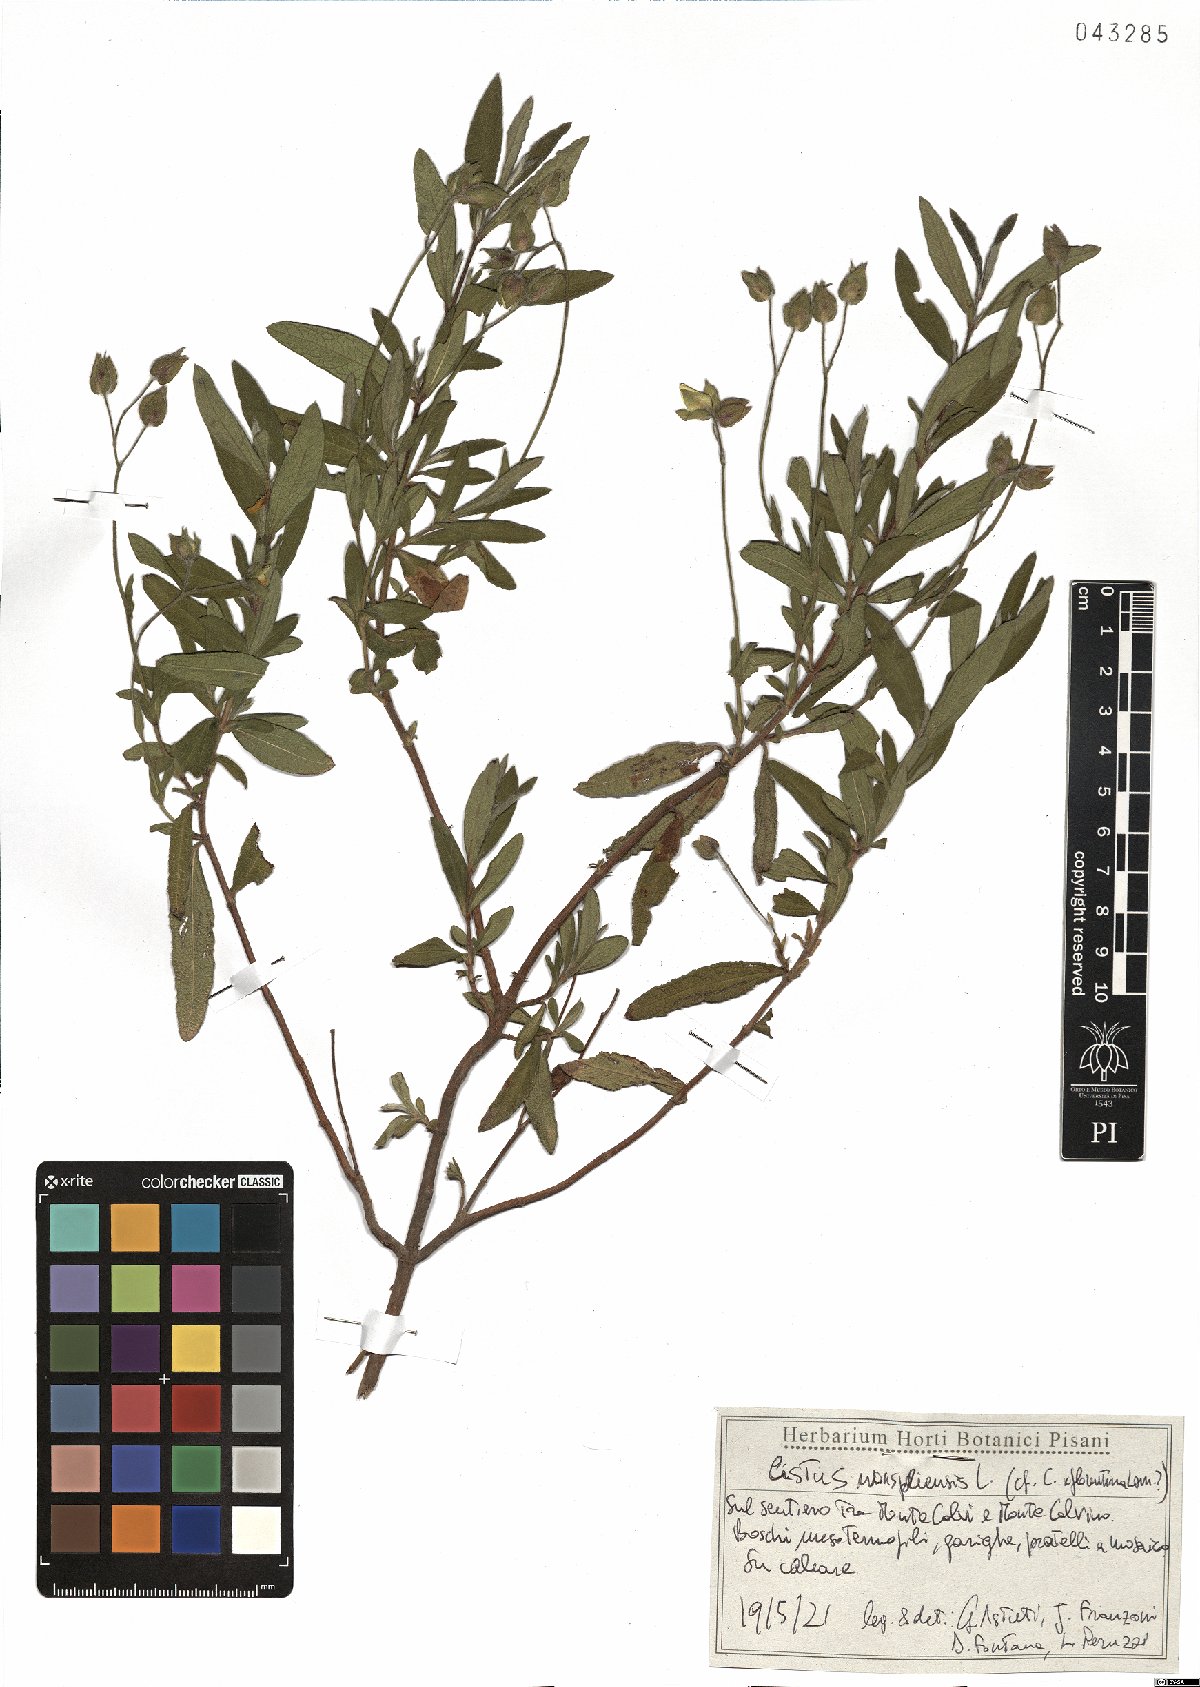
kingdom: Plantae
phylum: Tracheophyta
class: Magnoliopsida
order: Malvales
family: Cistaceae
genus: Cistus
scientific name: Cistus monspeliensis
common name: Montpelier cistus
